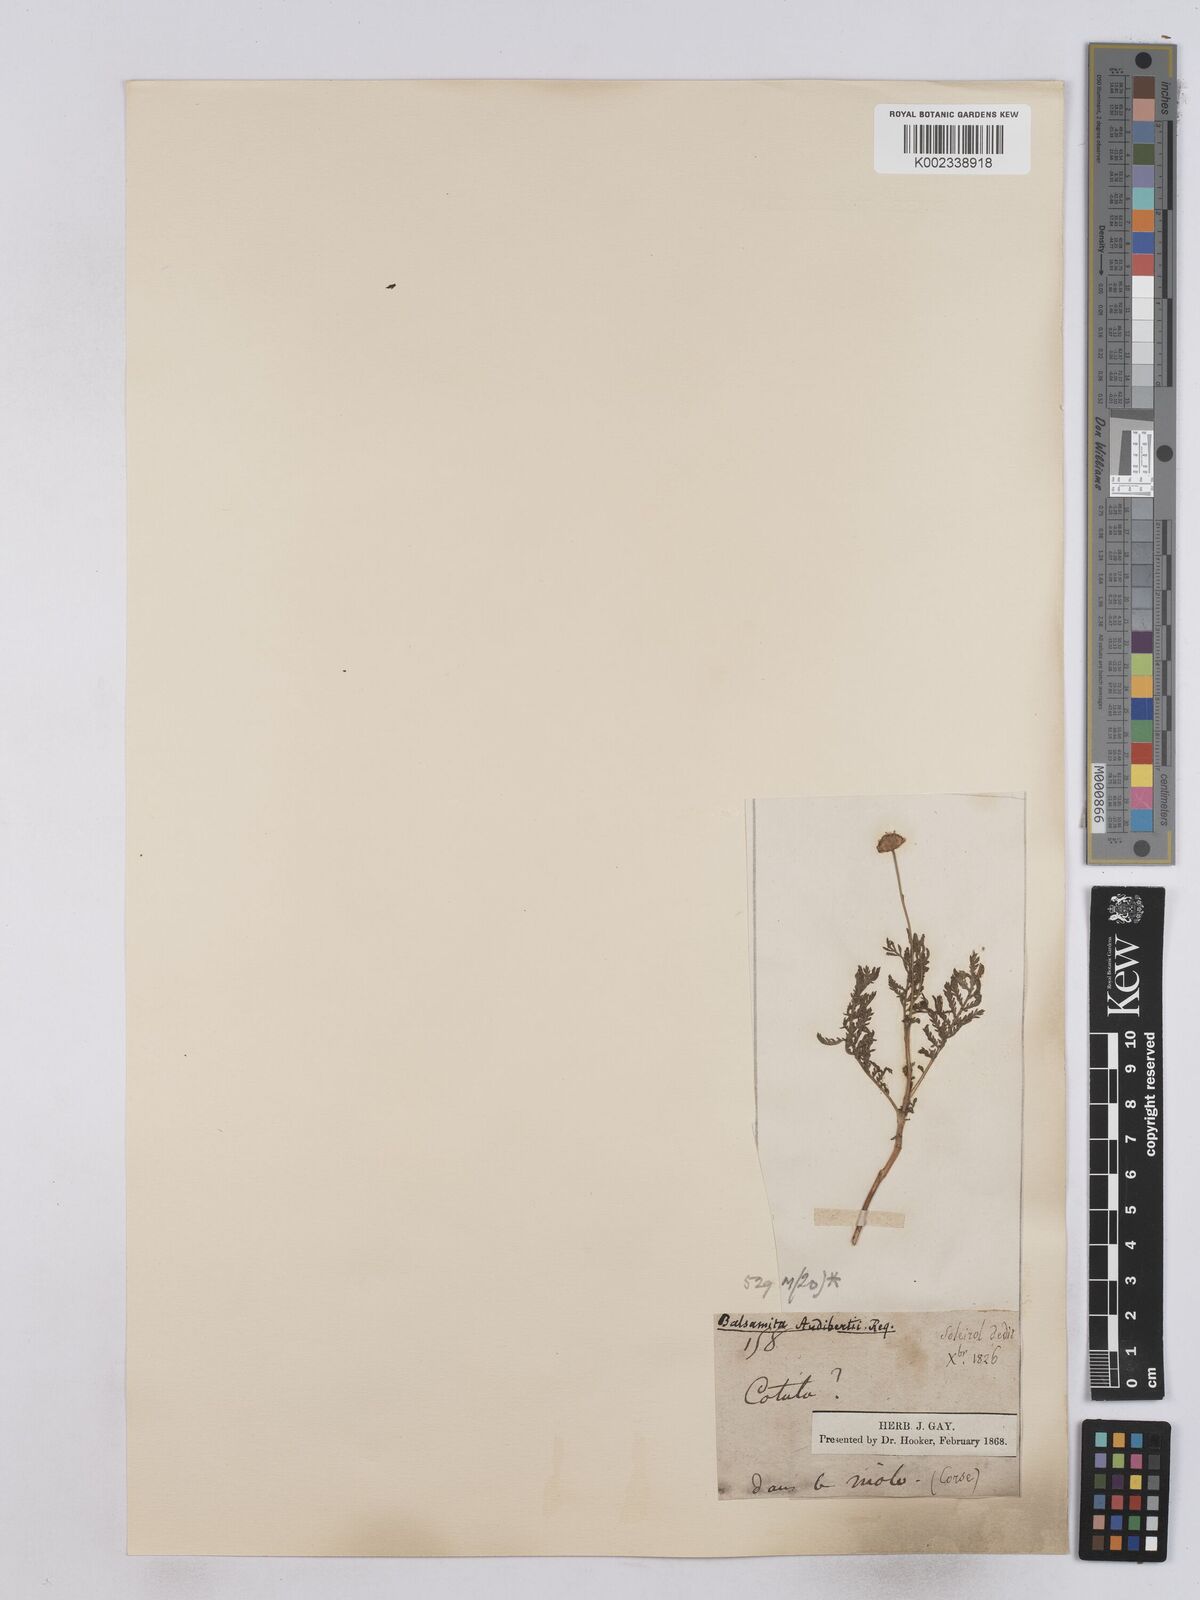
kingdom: Plantae
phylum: Tracheophyta
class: Magnoliopsida
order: Asterales
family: Asteraceae
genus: Tanacetum
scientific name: Tanacetum audibertii
